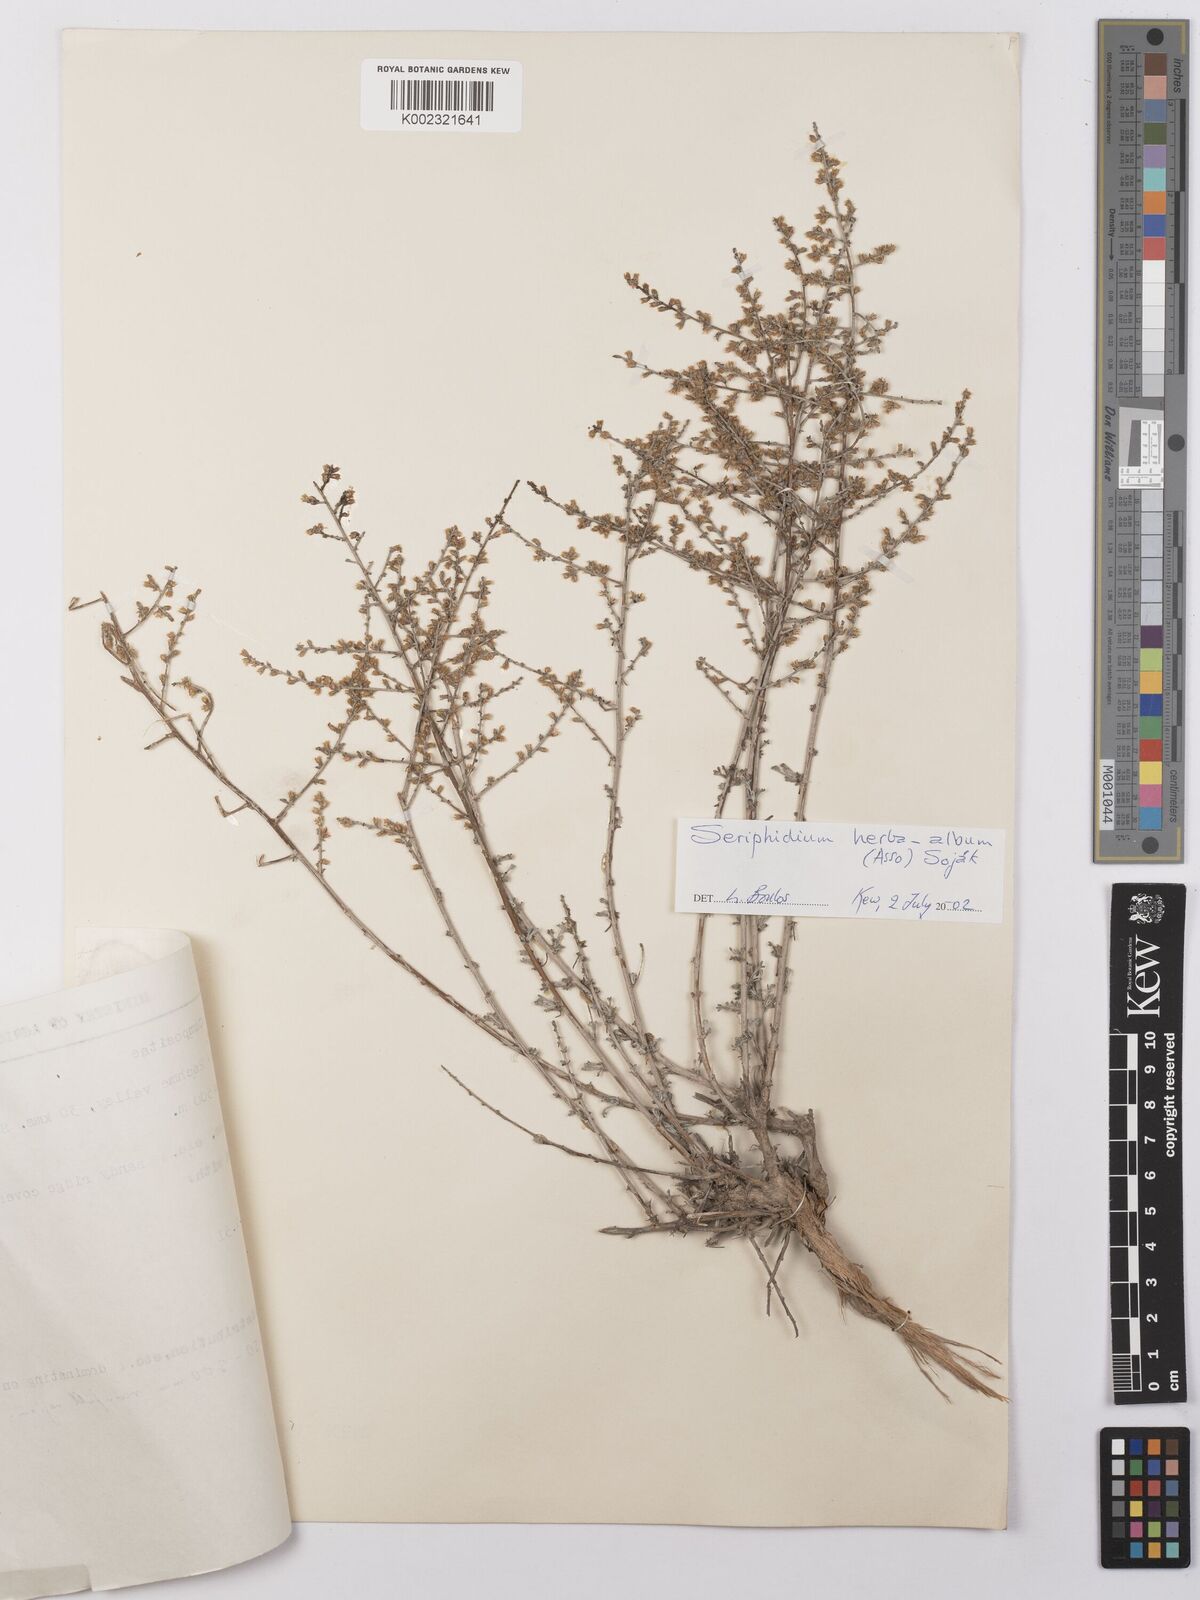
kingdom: Plantae
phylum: Tracheophyta
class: Magnoliopsida
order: Asterales
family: Asteraceae
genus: Seriphidium
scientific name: Seriphidium
